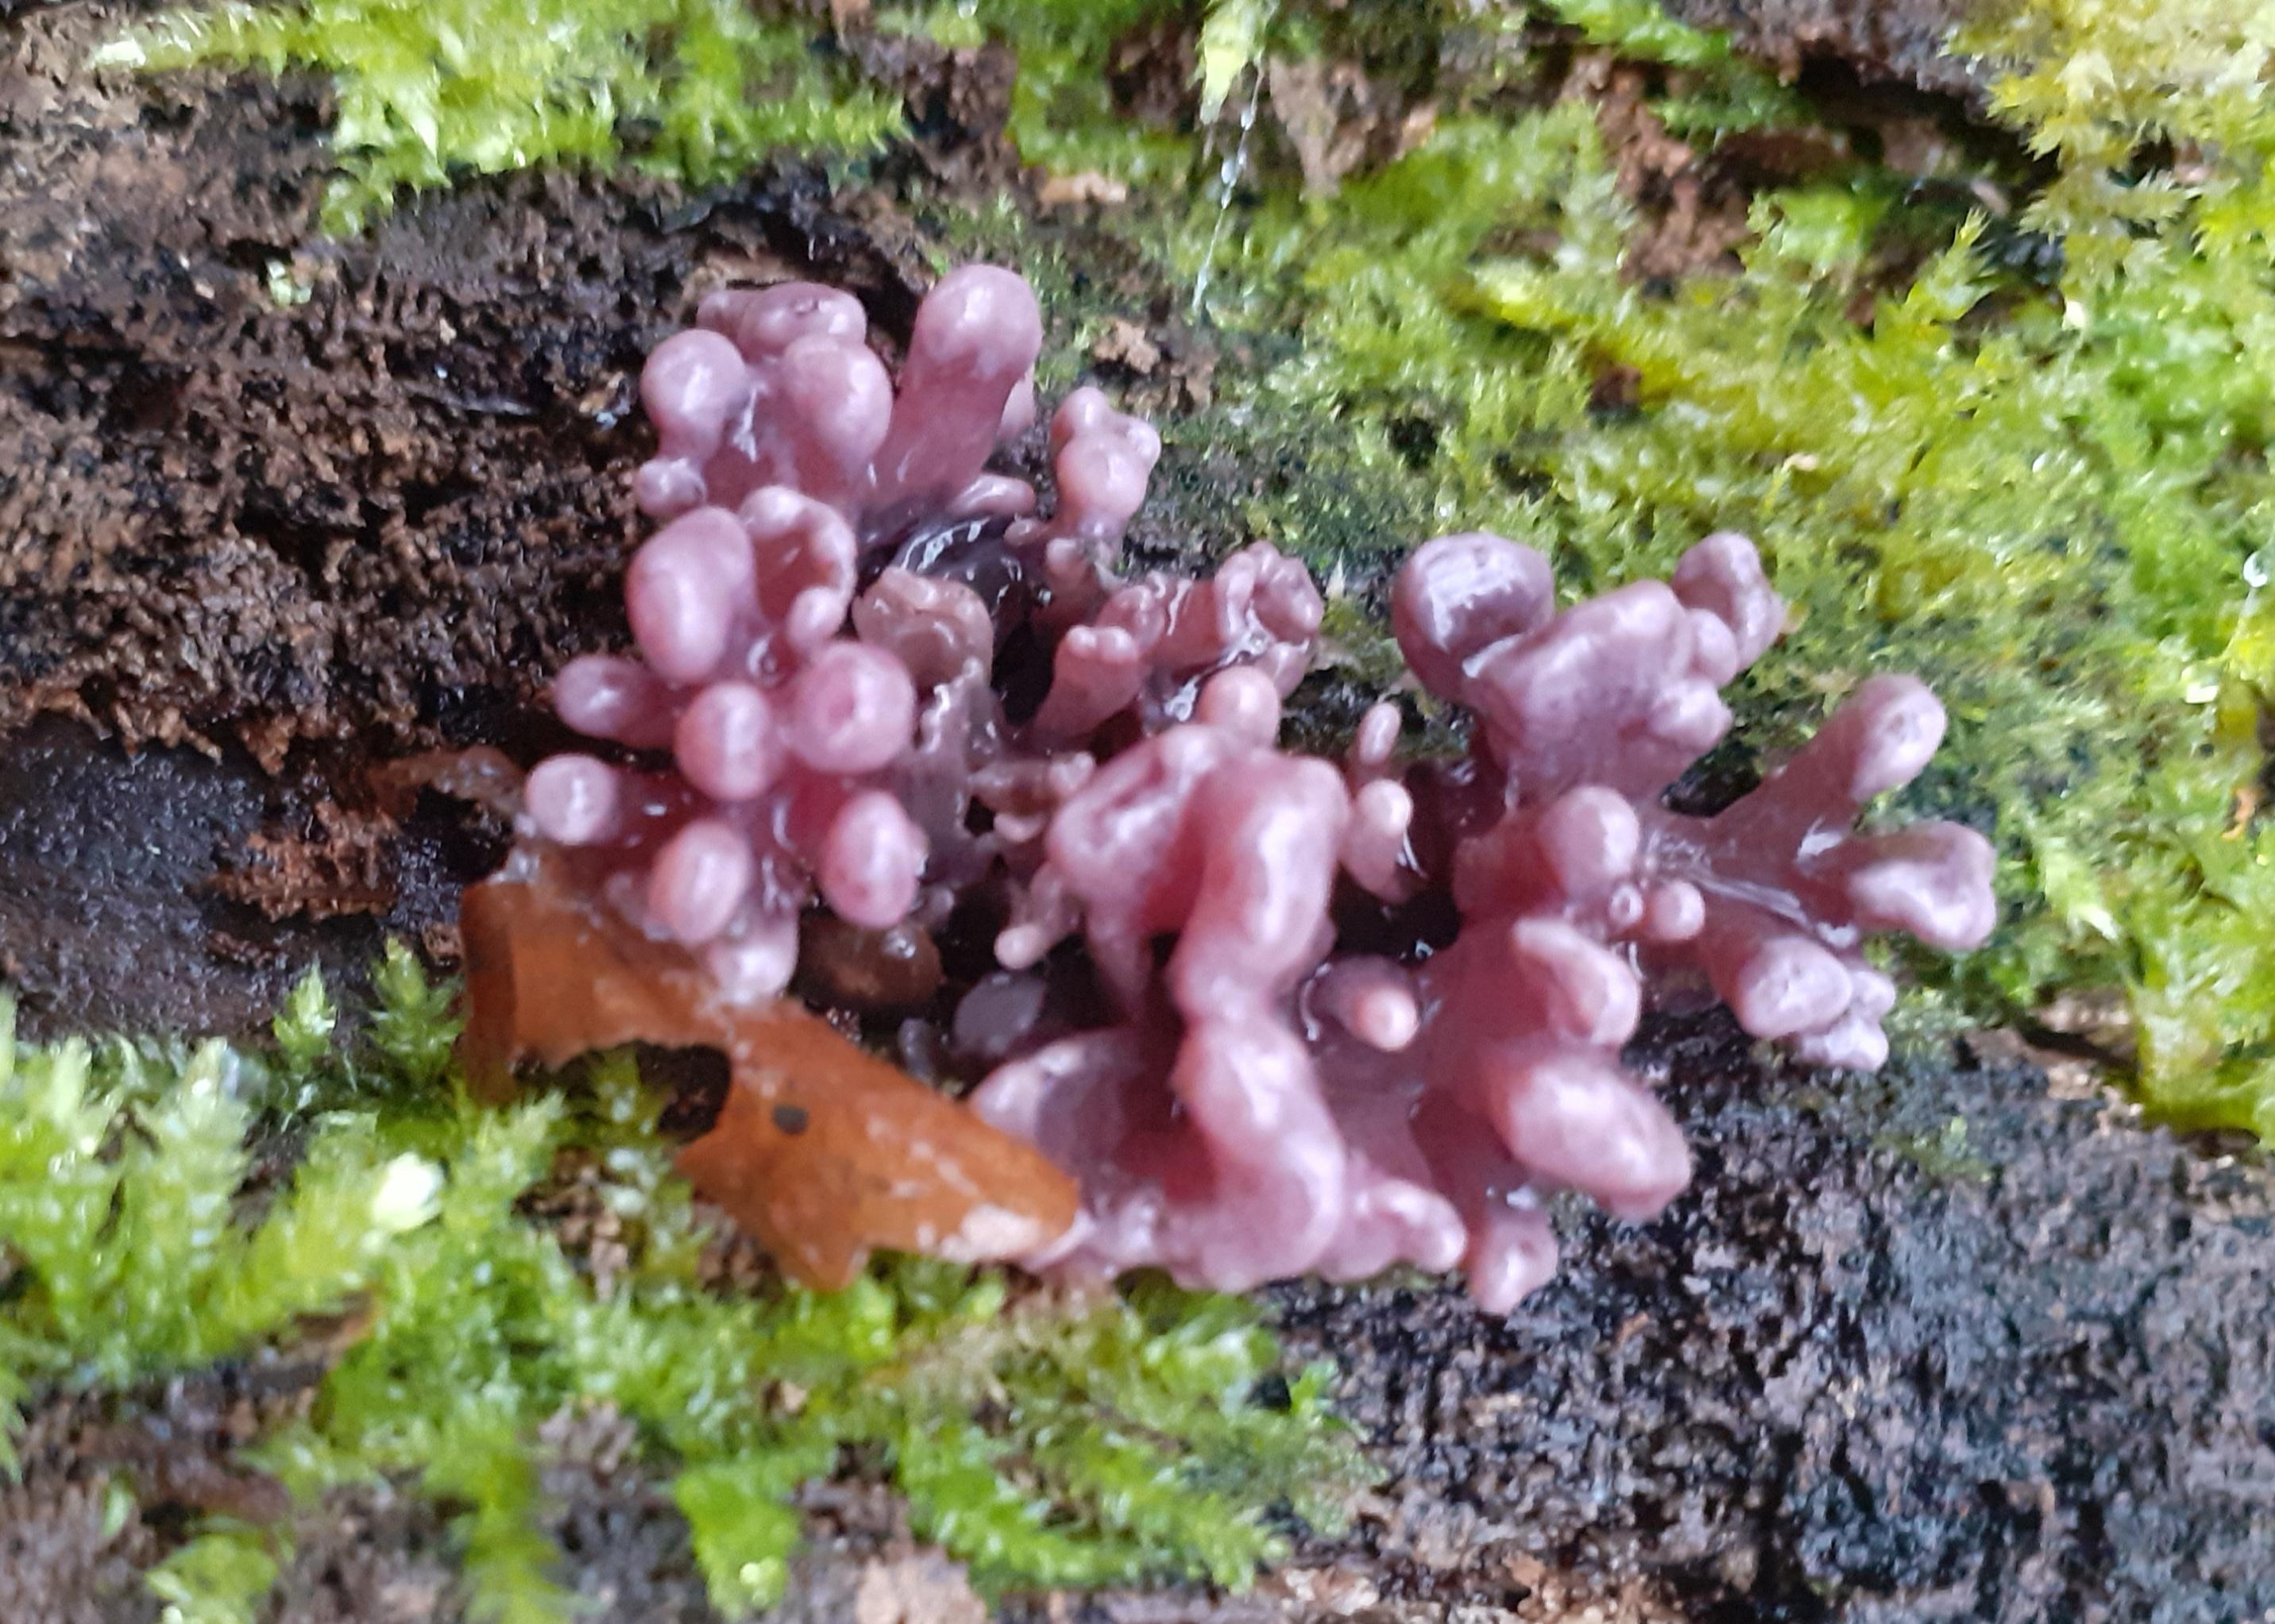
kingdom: Fungi
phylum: Ascomycota
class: Leotiomycetes
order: Helotiales
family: Gelatinodiscaceae
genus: Ascocoryne
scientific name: Ascocoryne sarcoides
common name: rødlilla sejskive
